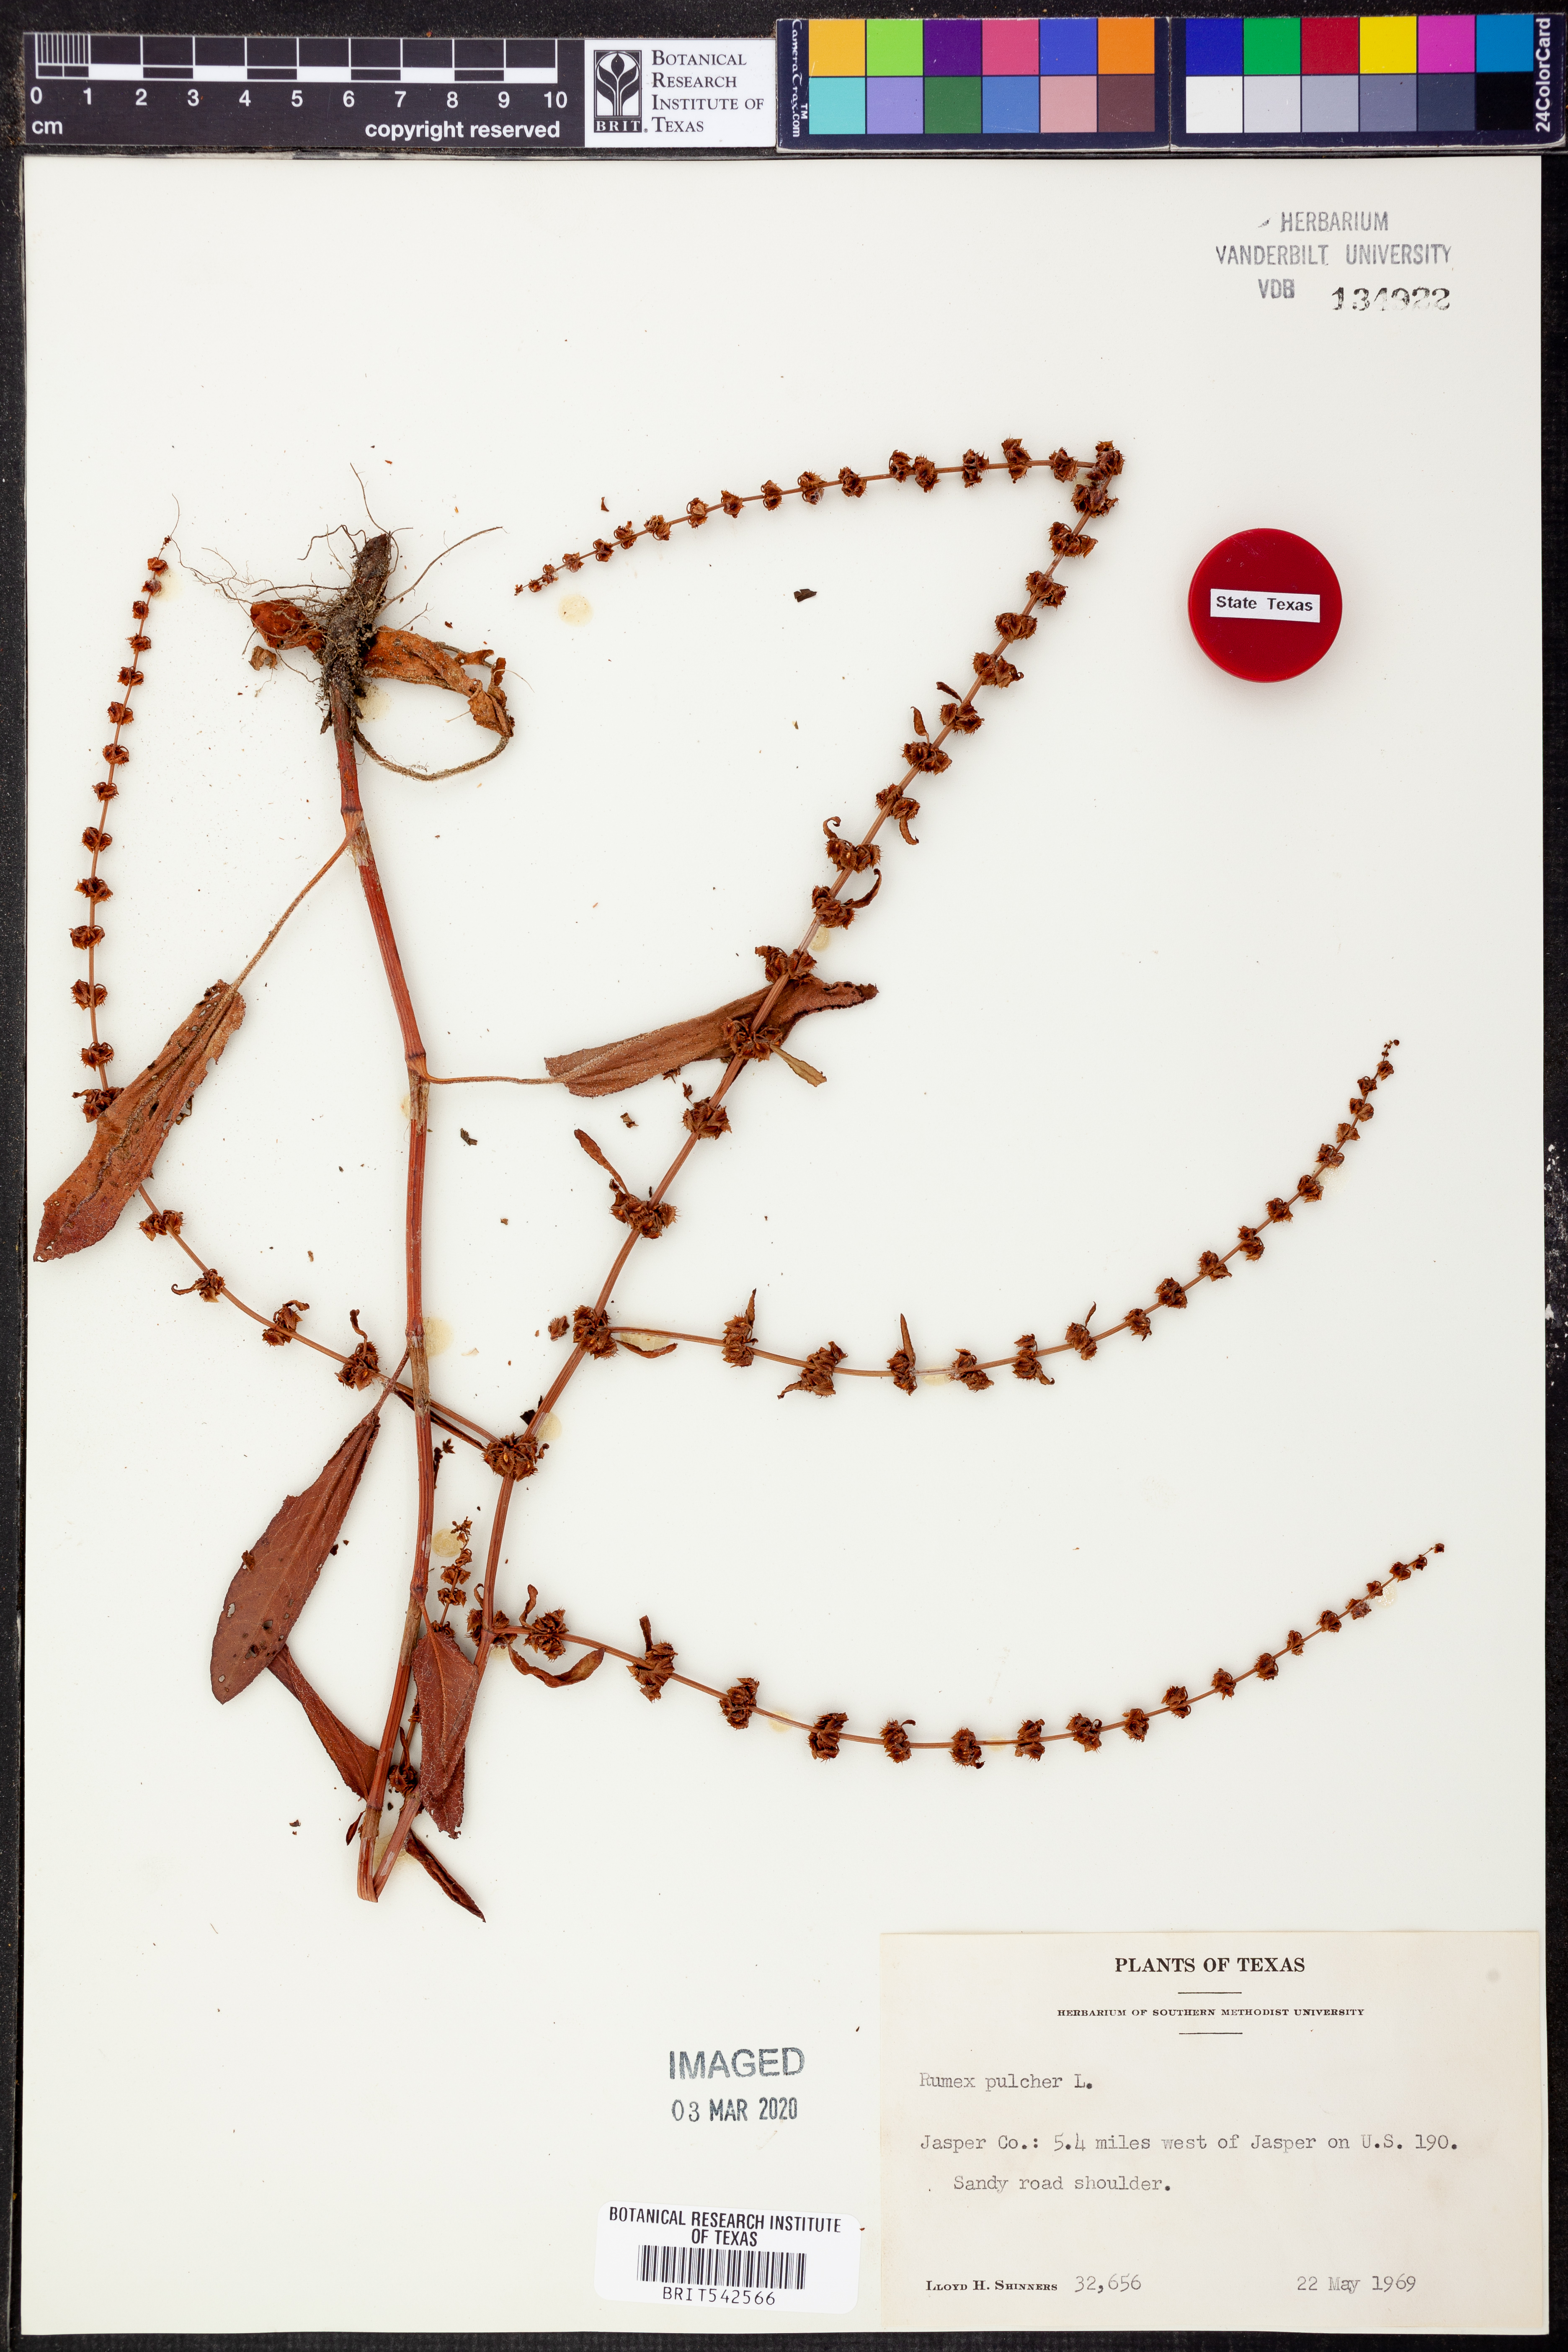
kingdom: Plantae
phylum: Tracheophyta
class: Magnoliopsida
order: Caryophyllales
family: Polygonaceae
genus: Rumex
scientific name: Rumex pulcher
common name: Fiddle dock
